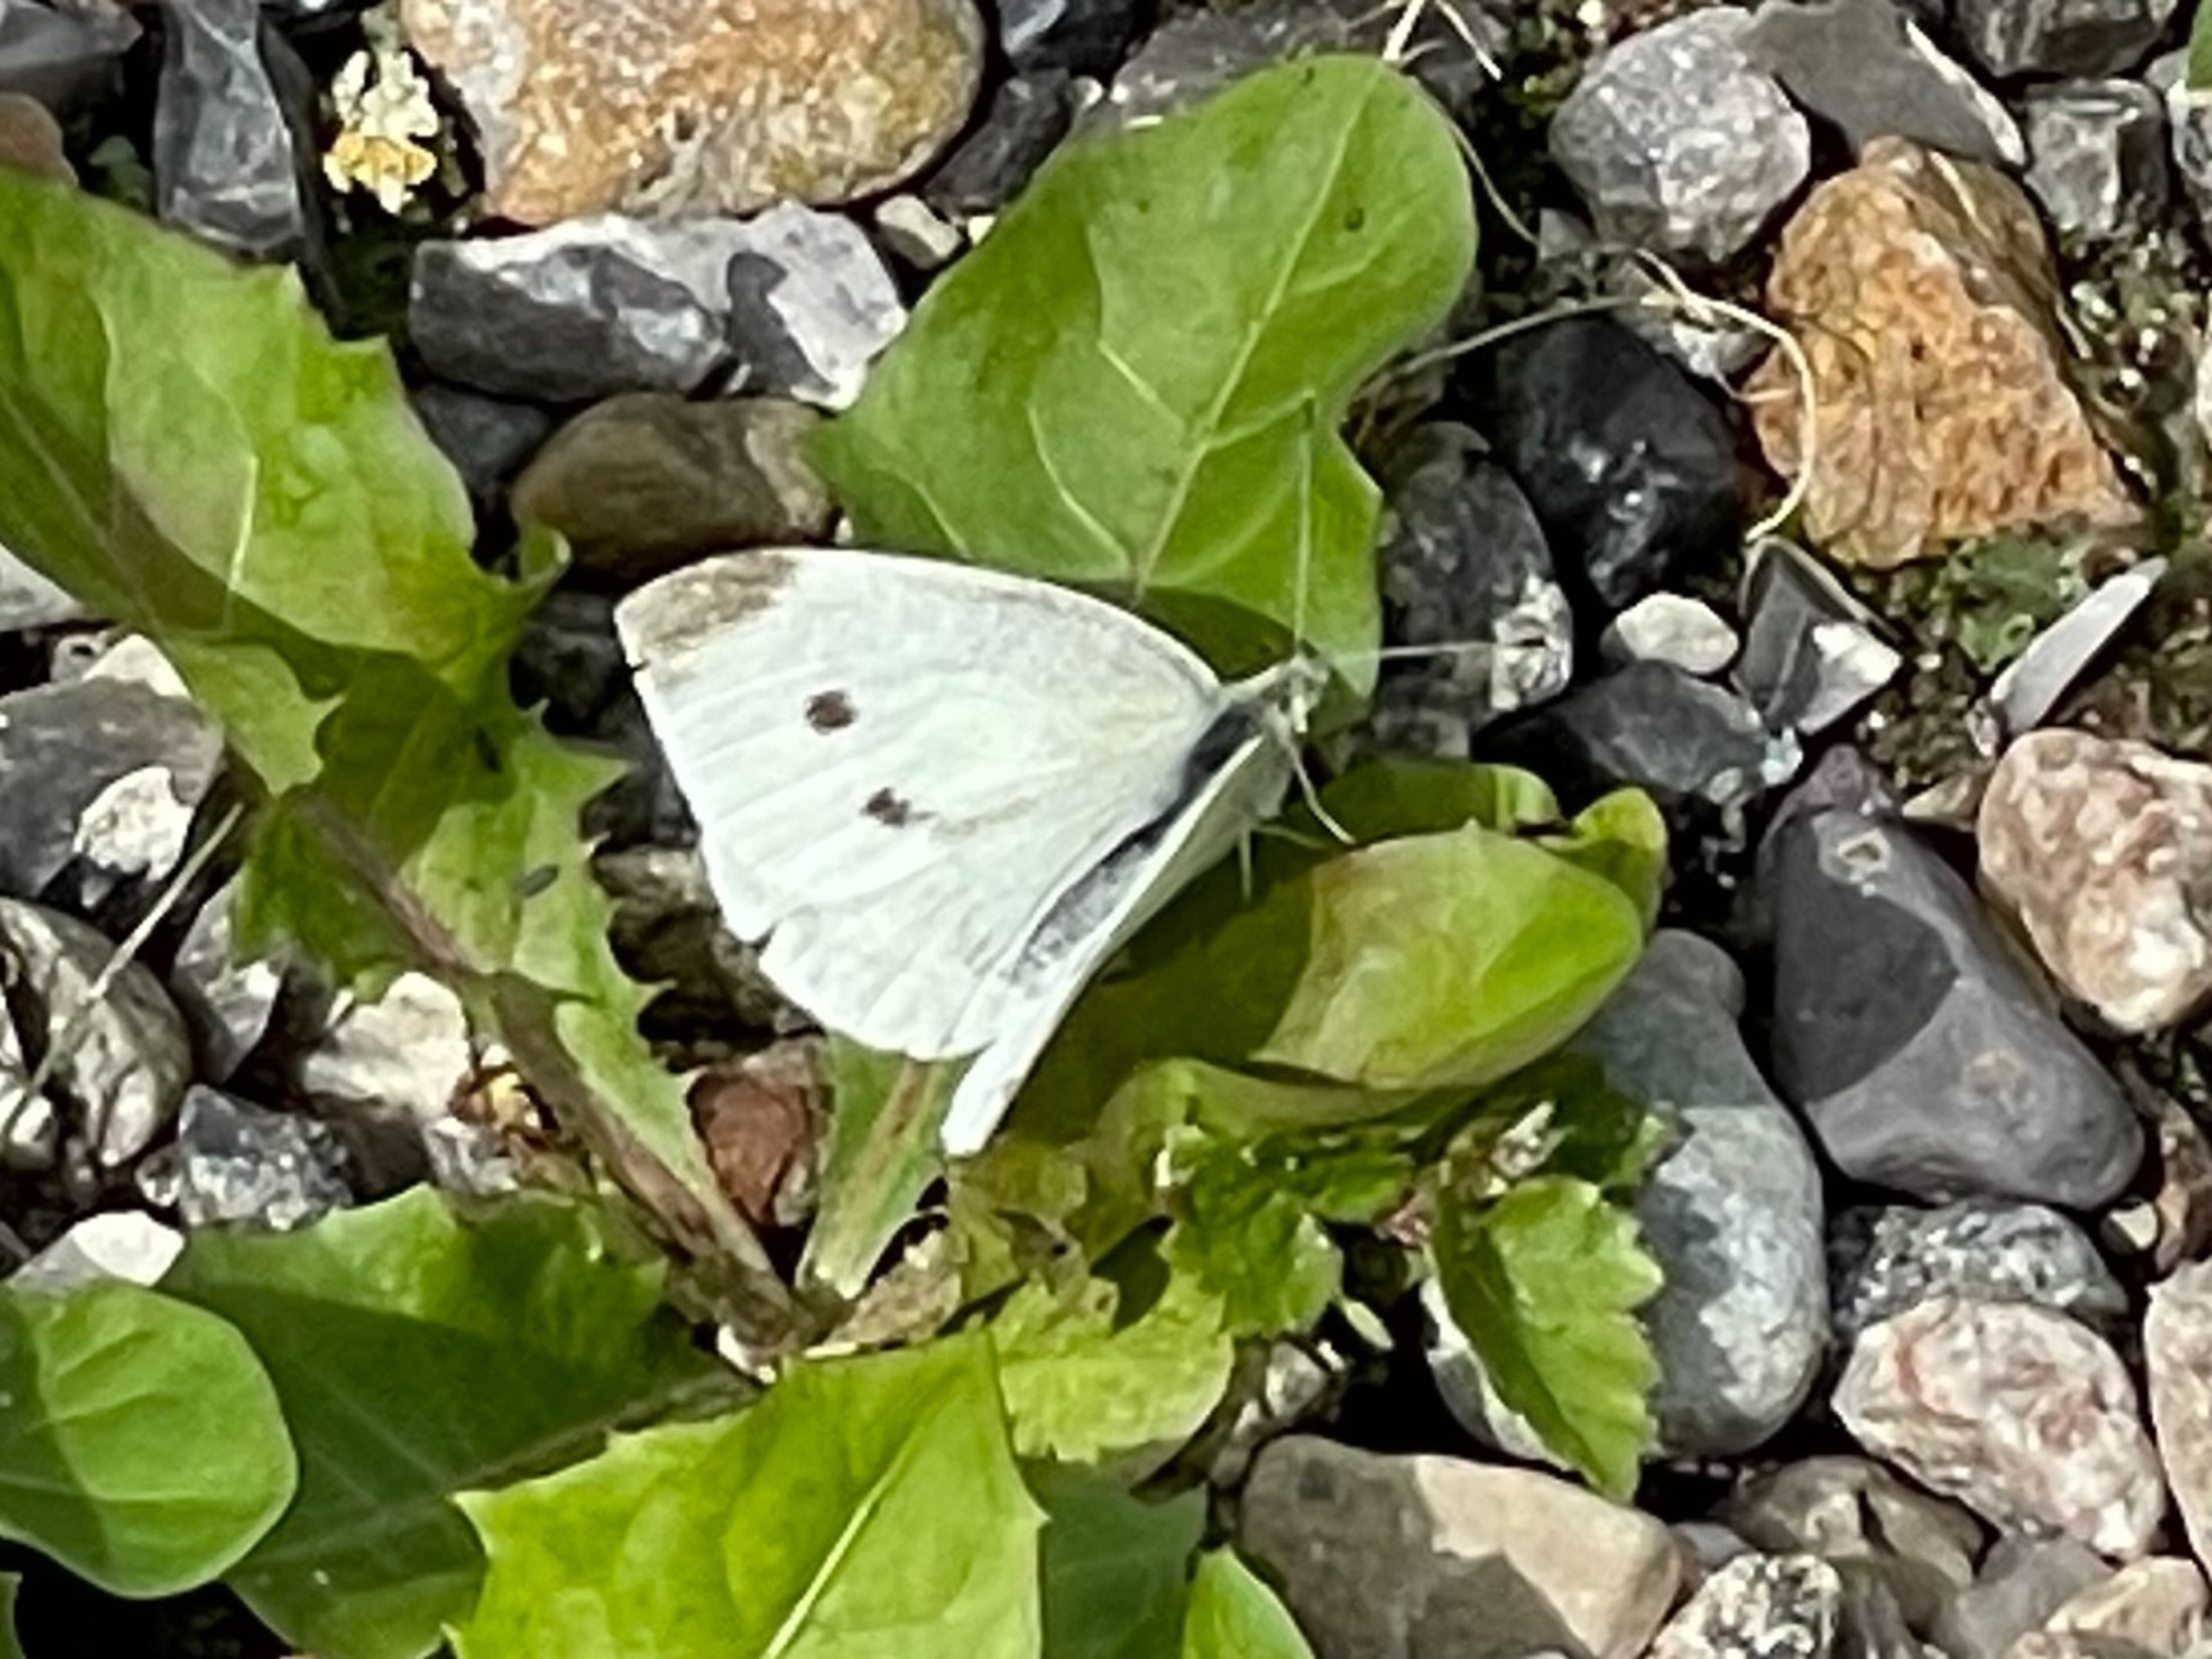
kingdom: Animalia
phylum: Arthropoda
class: Insecta
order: Lepidoptera
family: Pieridae
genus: Pieris
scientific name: Pieris rapae
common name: Lille kålsommerfugl
